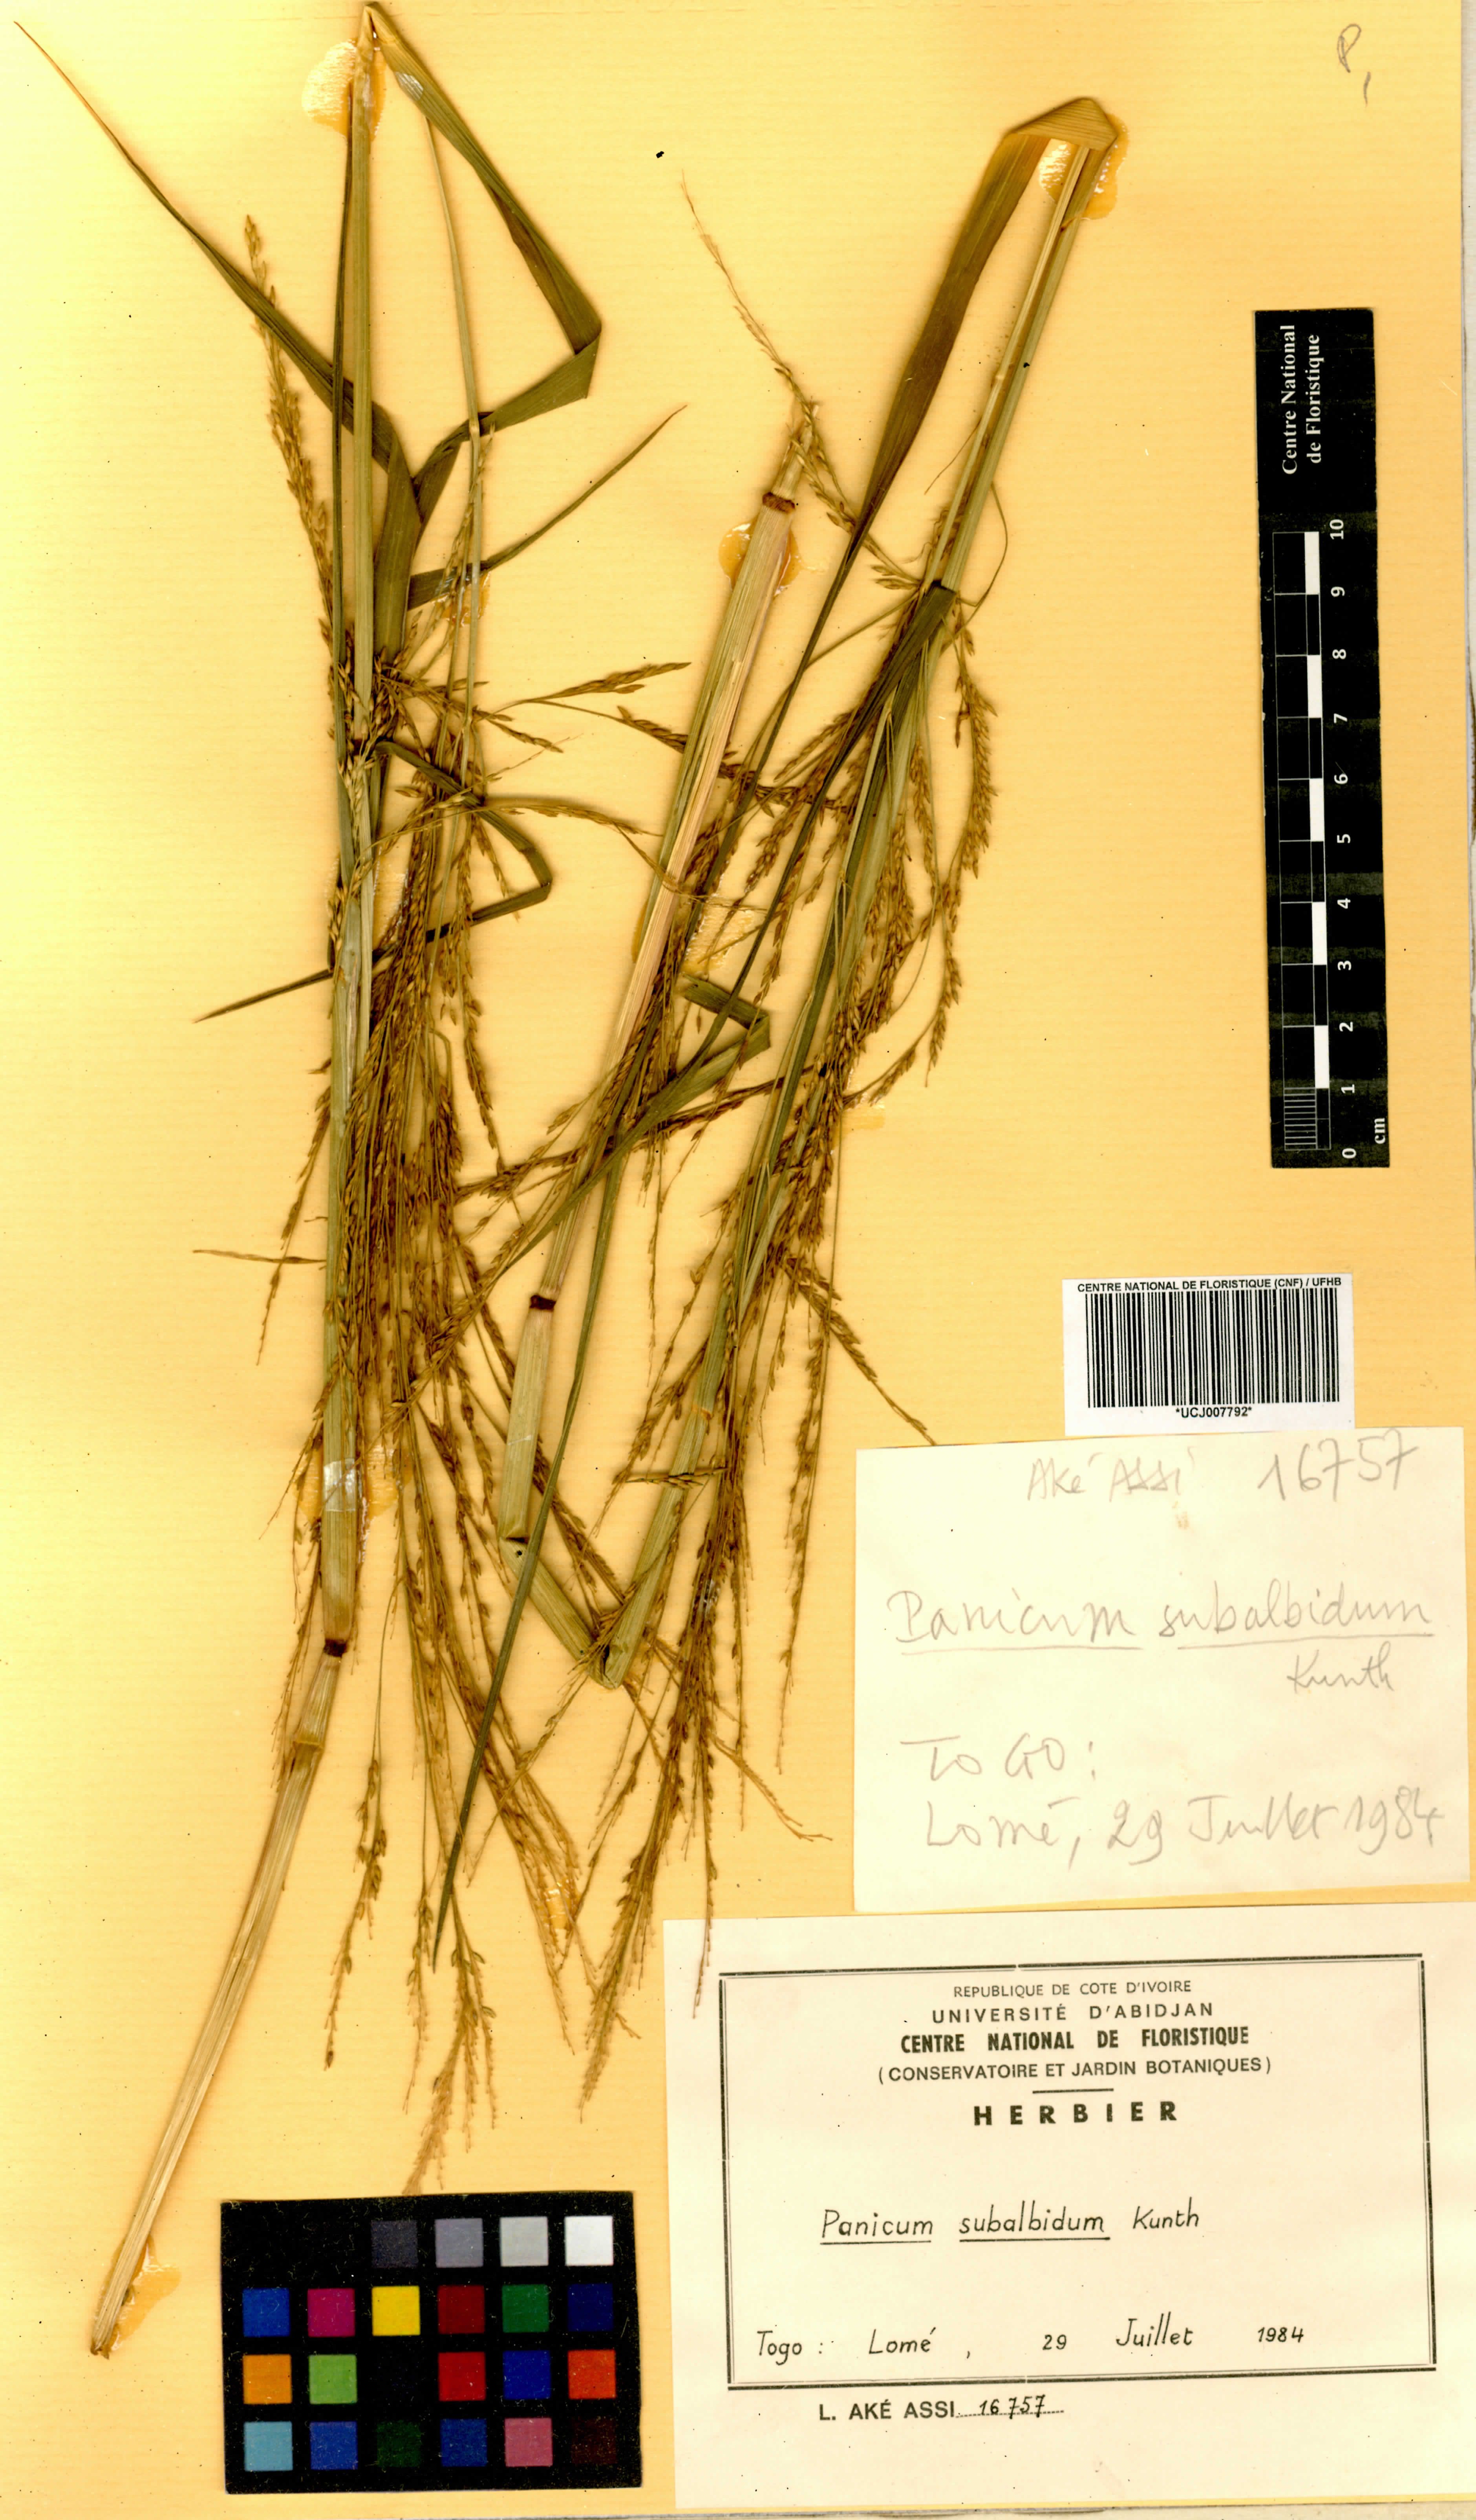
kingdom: Plantae
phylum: Tracheophyta
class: Liliopsida
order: Poales
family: Poaceae
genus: Panicum
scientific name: Panicum subalbidum
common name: Elbow buffalo grass
